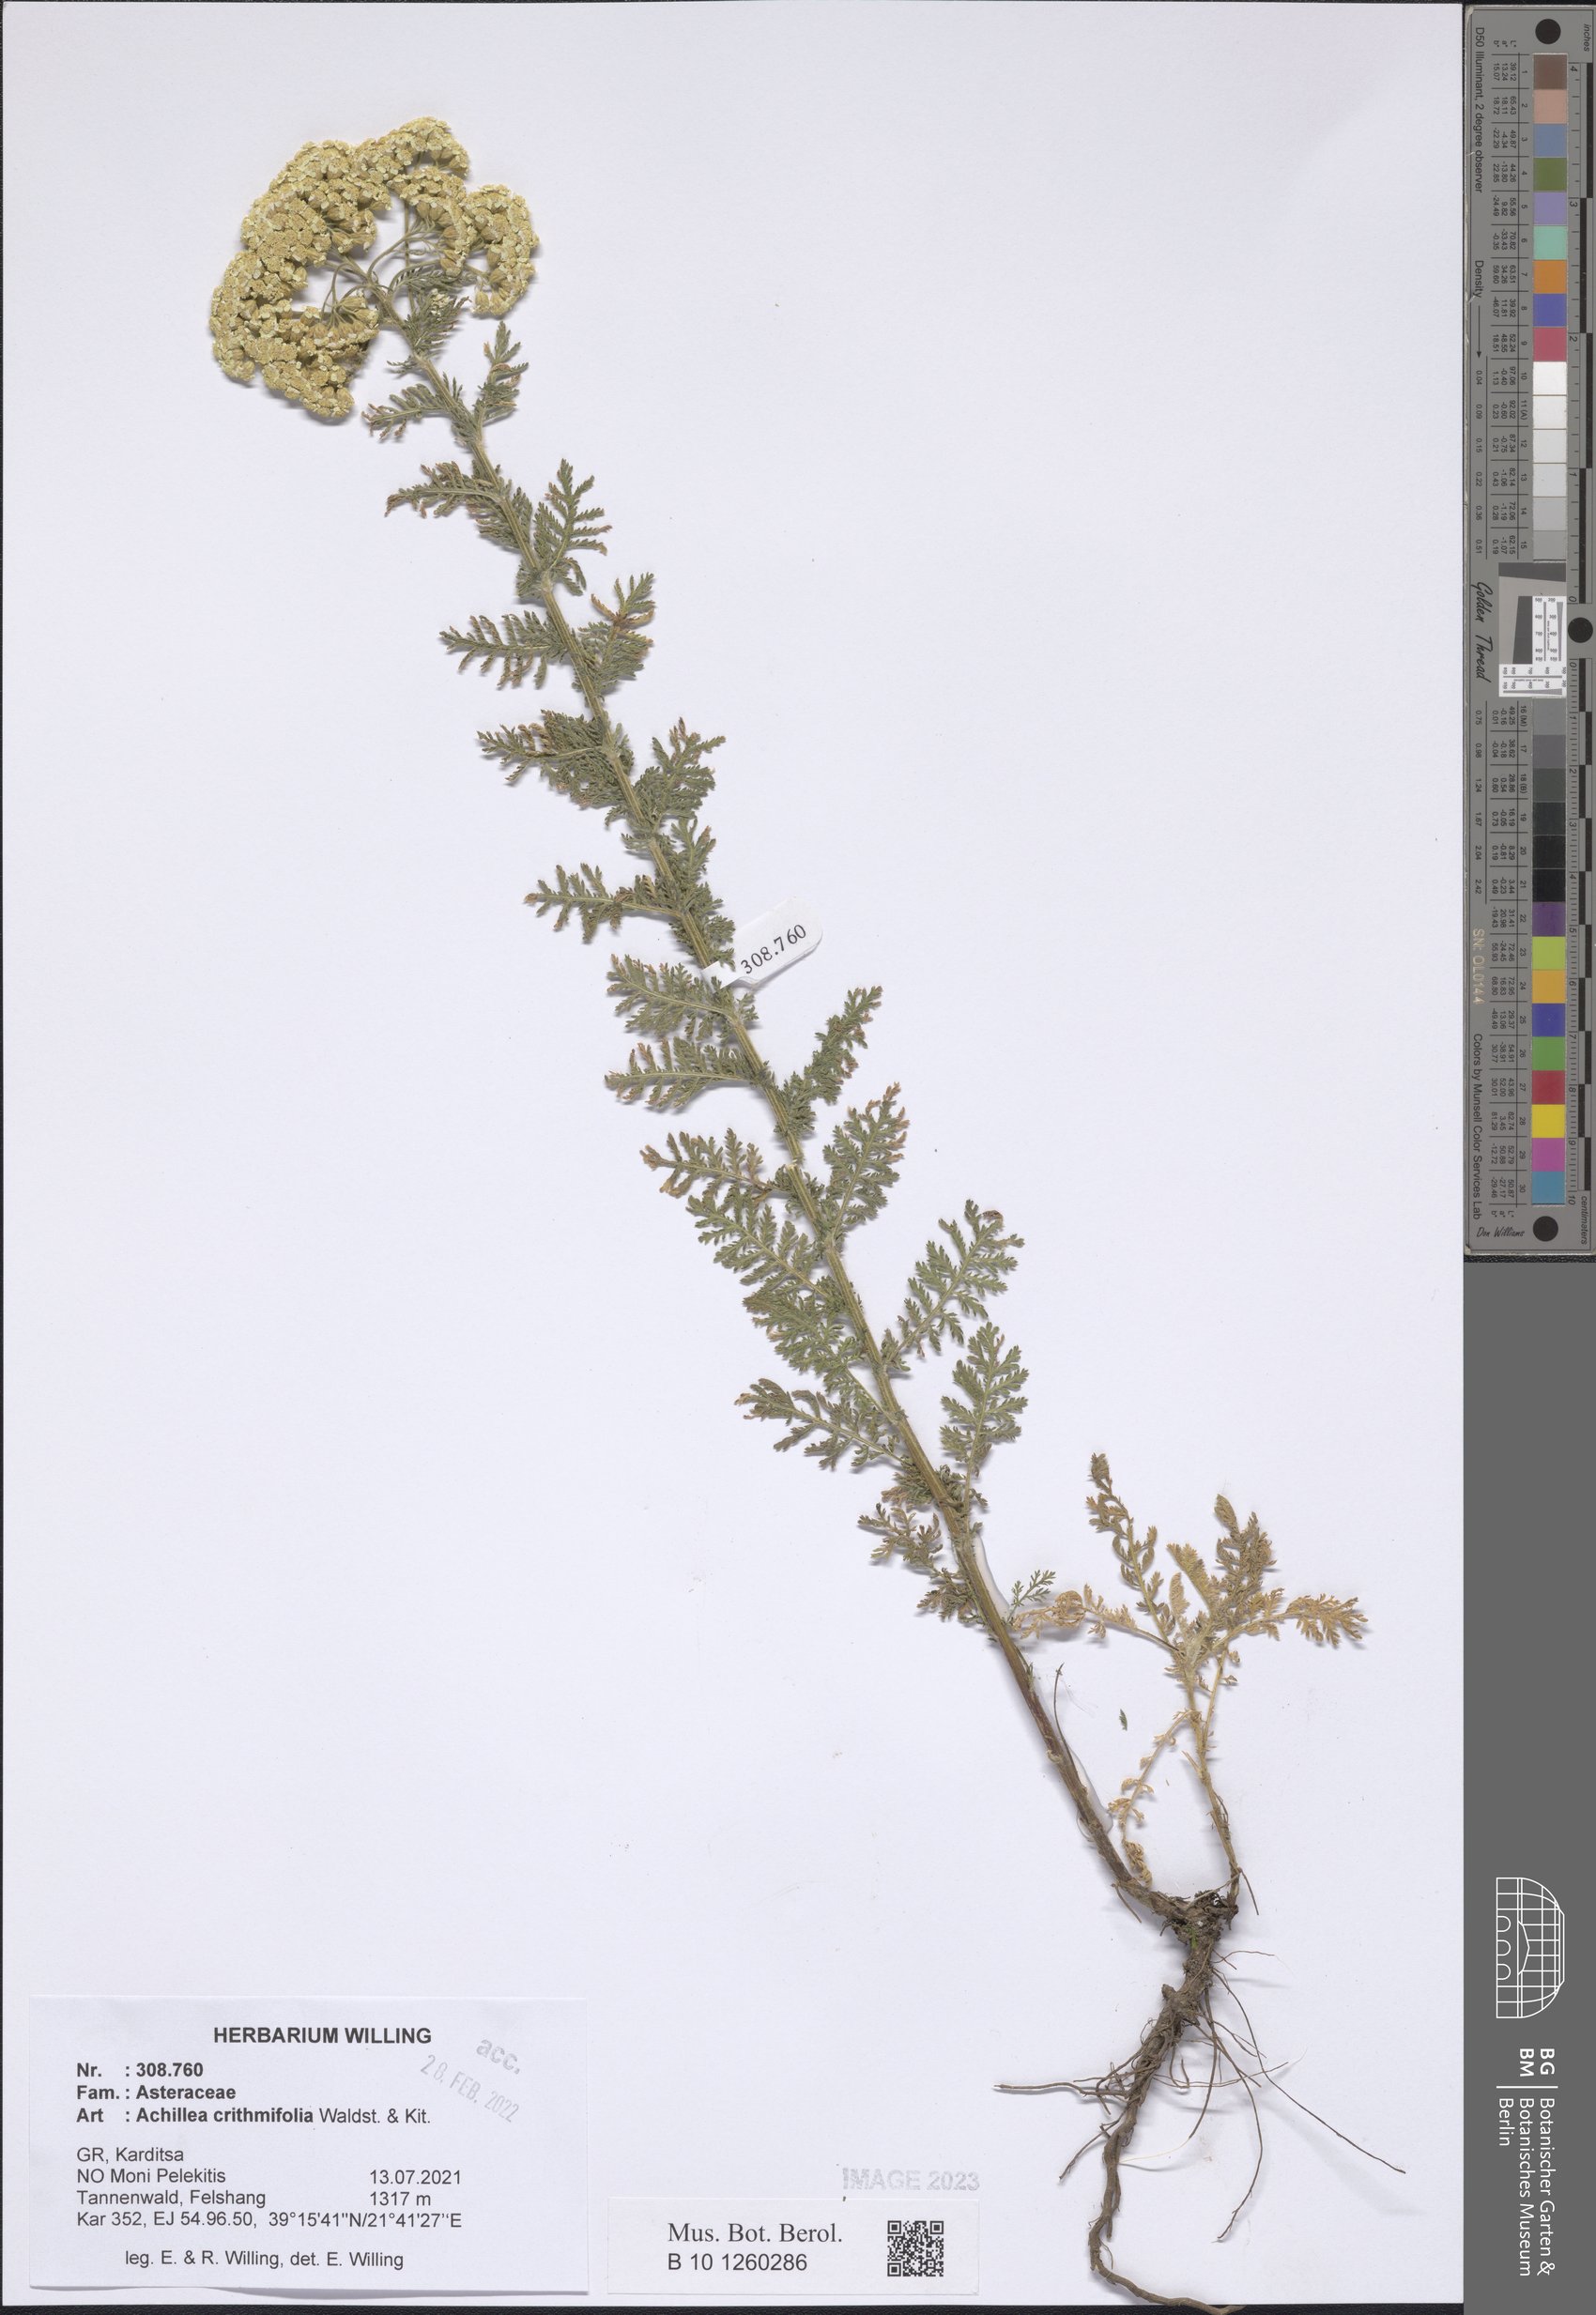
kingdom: Plantae
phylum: Tracheophyta
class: Magnoliopsida
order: Asterales
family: Asteraceae
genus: Achillea
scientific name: Achillea crithmifolia
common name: Yarrow
